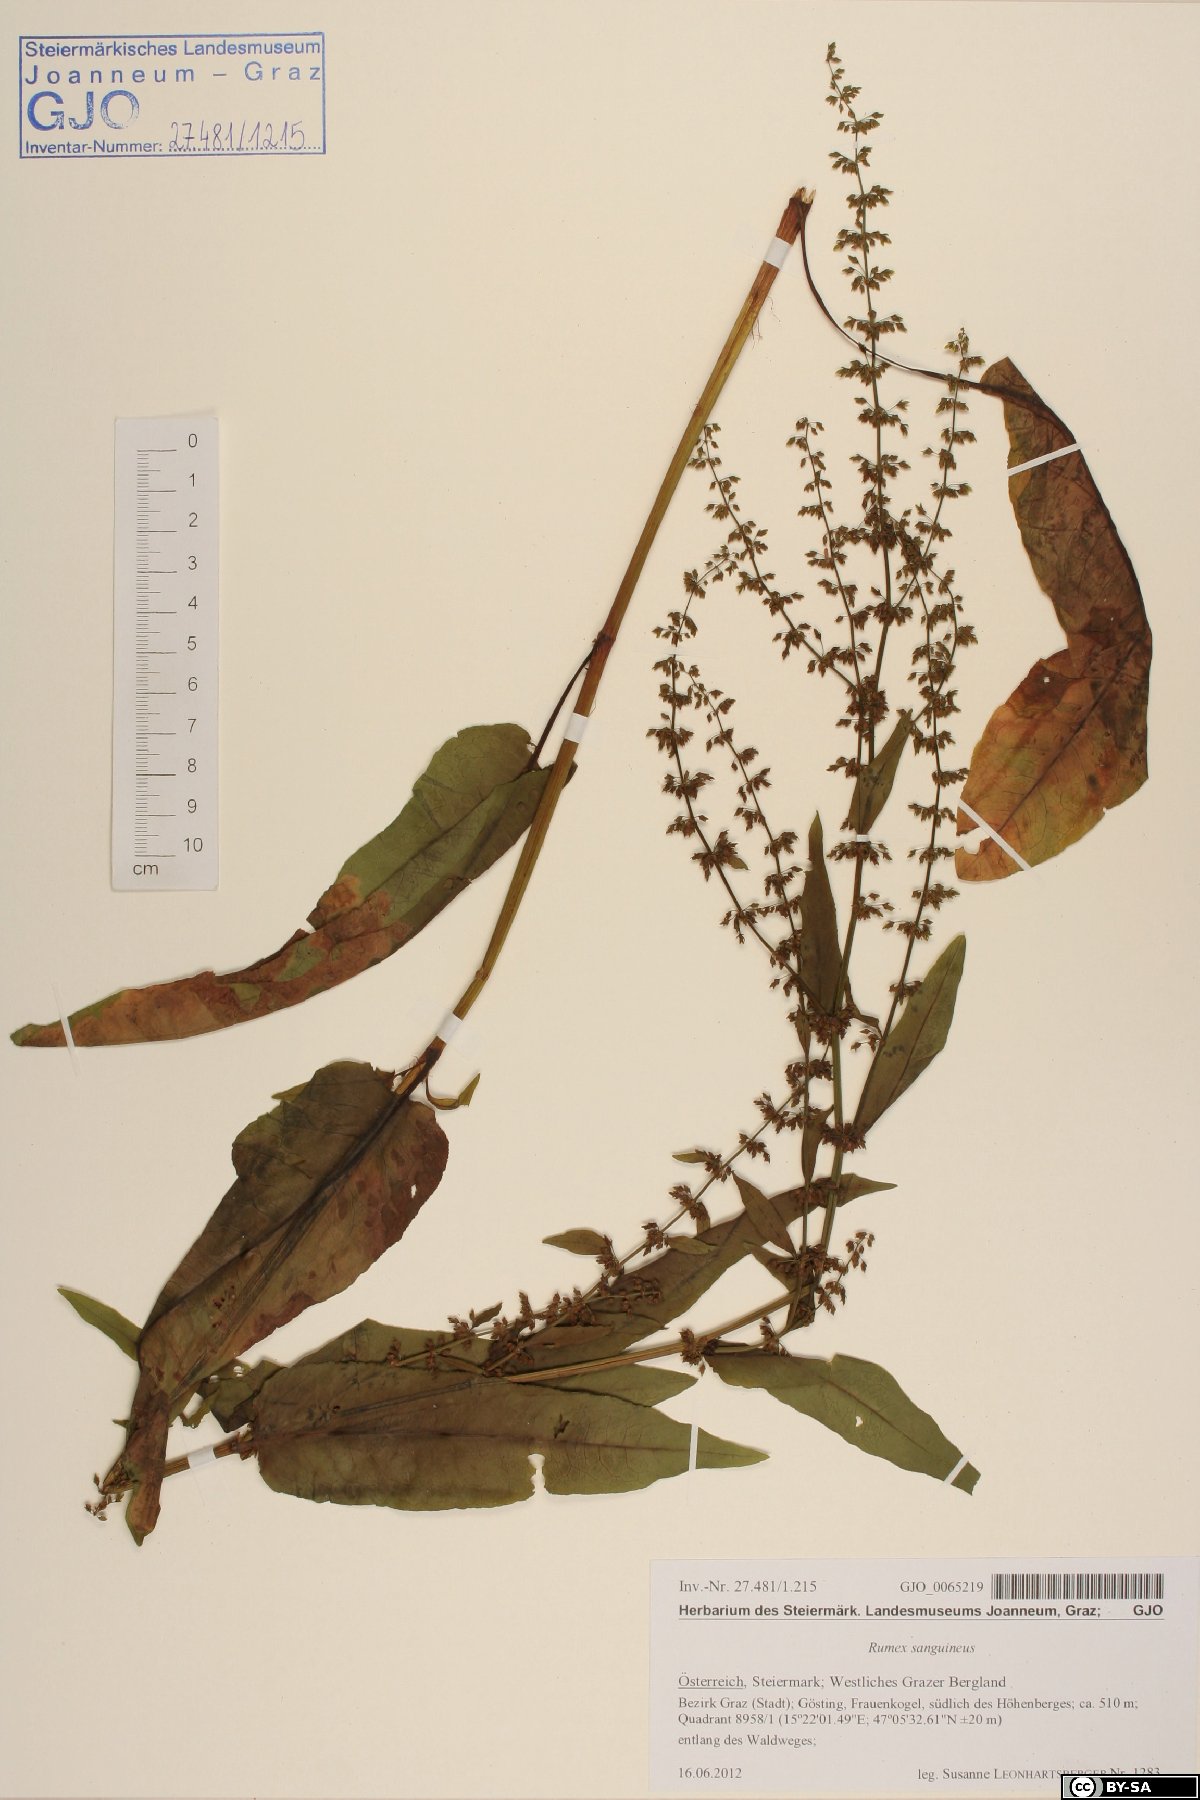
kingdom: Plantae
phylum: Tracheophyta
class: Magnoliopsida
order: Caryophyllales
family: Polygonaceae
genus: Rumex
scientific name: Rumex sanguineus
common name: Wood dock
